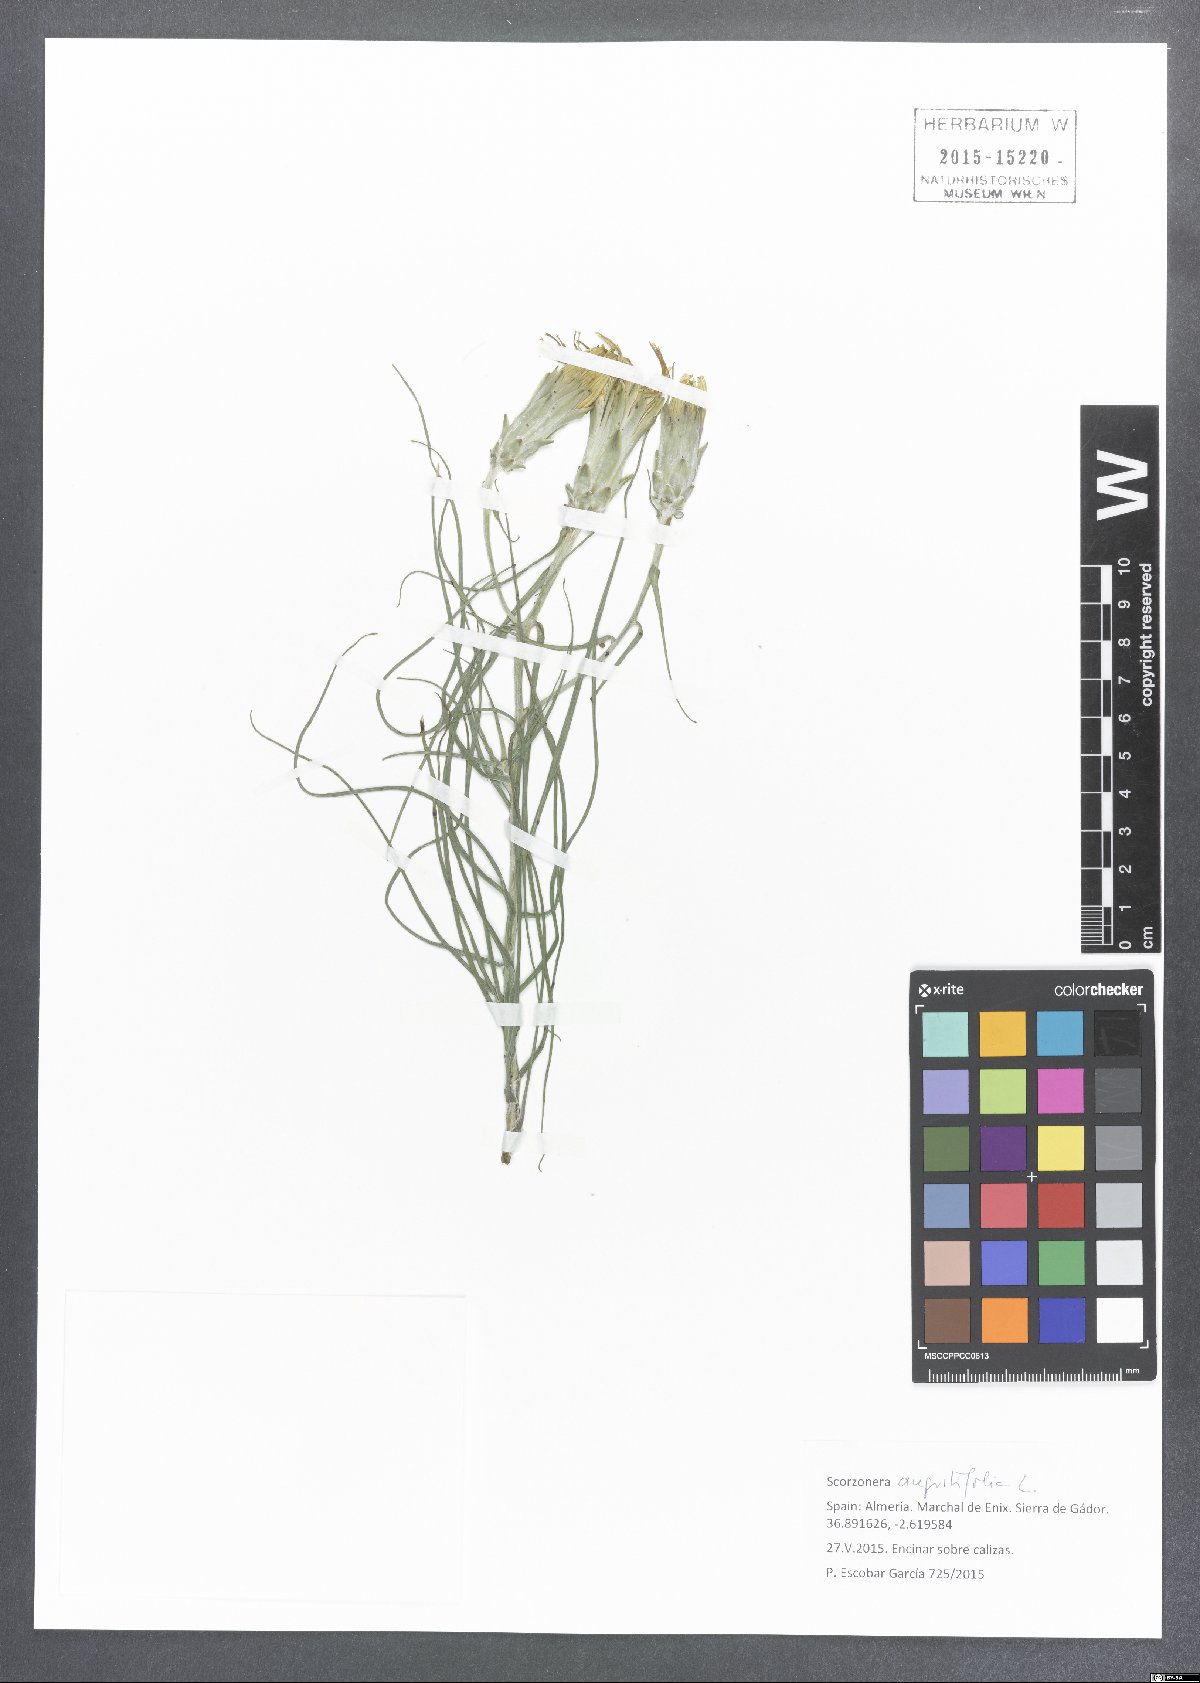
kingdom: Plantae
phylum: Tracheophyta
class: Magnoliopsida
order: Asterales
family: Asteraceae
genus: Scorzonera
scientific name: Scorzonera angustifolia
